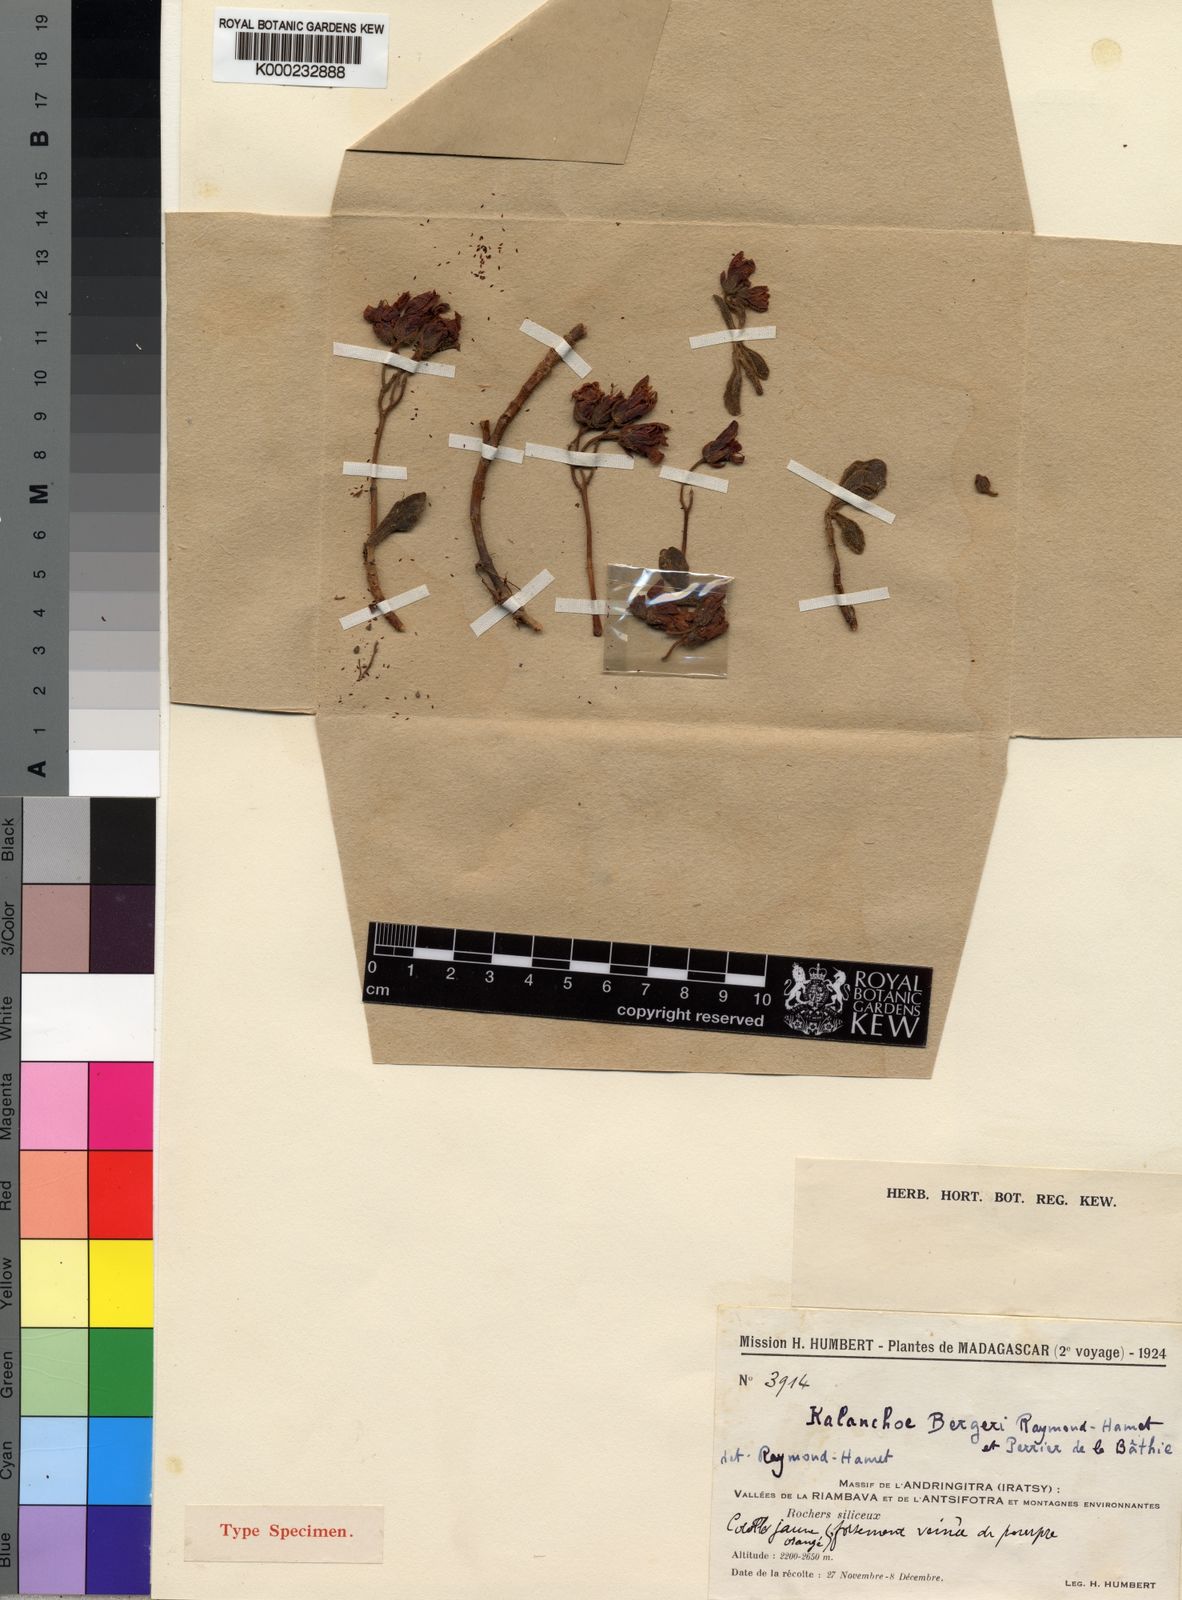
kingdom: Plantae
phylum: Tracheophyta
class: Magnoliopsida
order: Saxifragales
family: Crassulaceae
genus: Kalanchoe
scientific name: Kalanchoe bergeri
